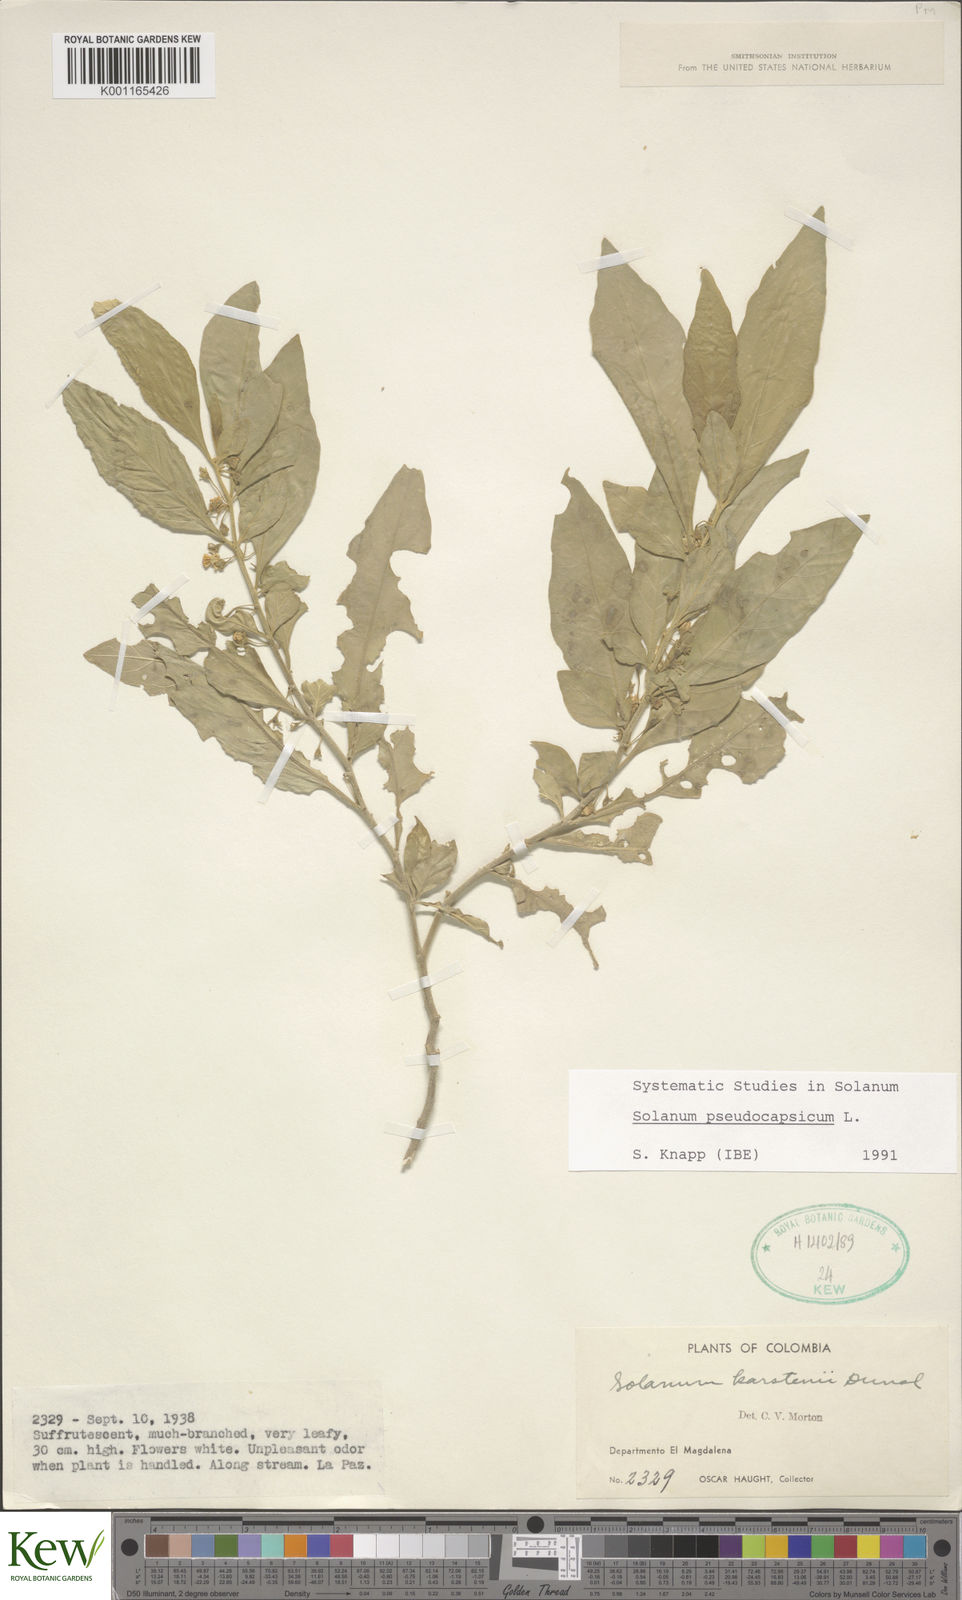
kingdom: Plantae
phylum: Tracheophyta
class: Magnoliopsida
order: Solanales
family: Solanaceae
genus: Solanum
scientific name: Solanum pseudocapsicum
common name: Jerusalem cherry
